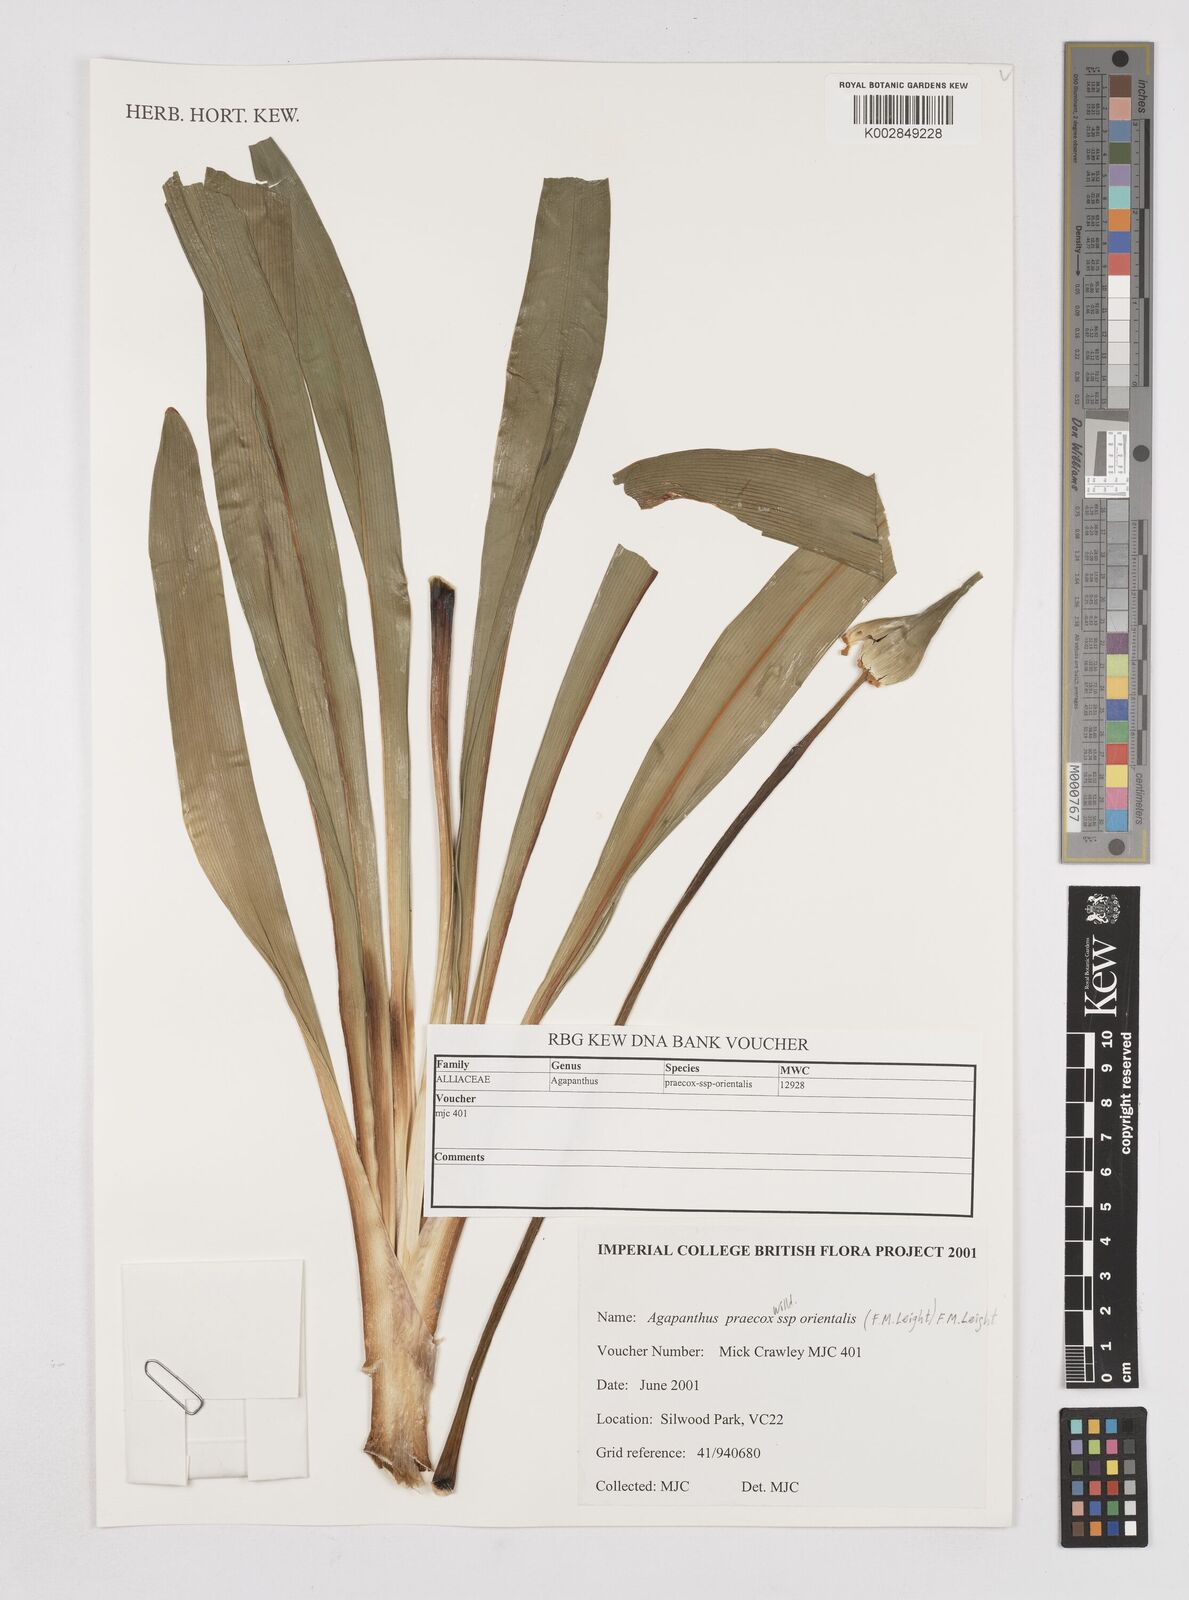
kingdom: Plantae
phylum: Tracheophyta
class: Liliopsida
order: Asparagales
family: Amaryllidaceae
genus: Agapanthus
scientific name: Agapanthus praecox
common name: African-lily
